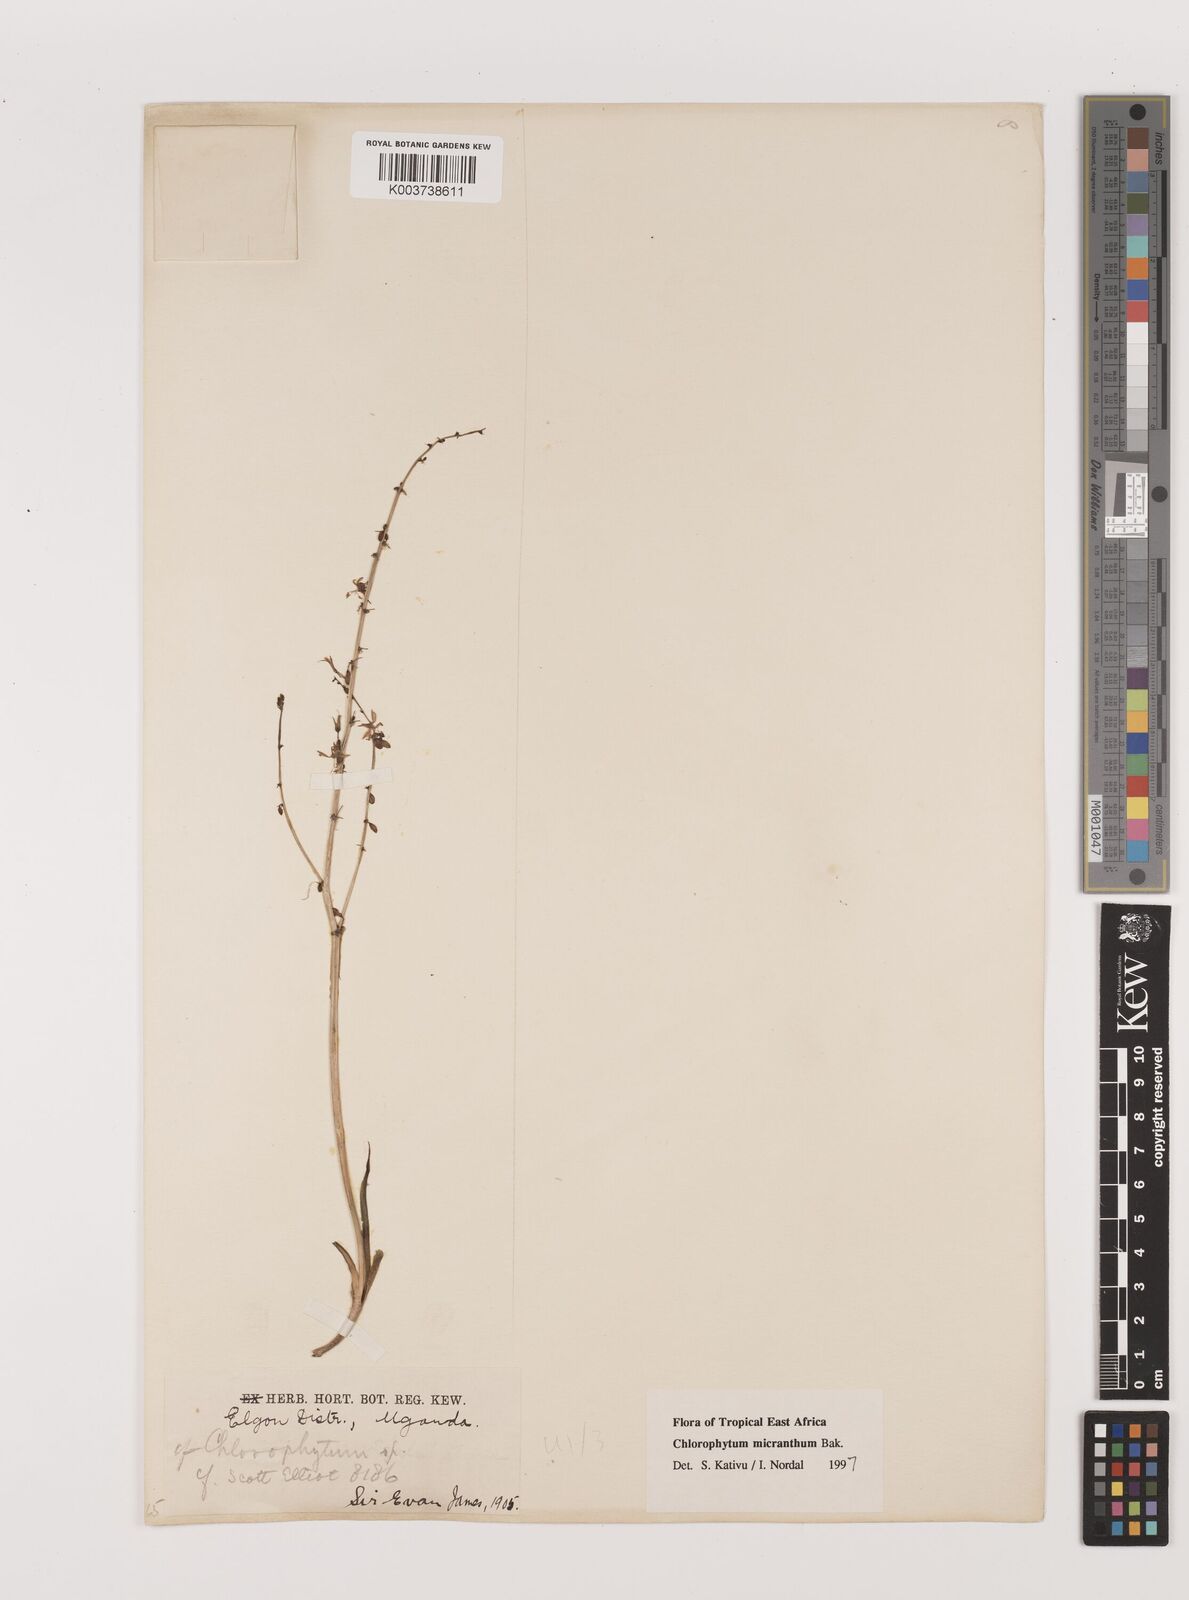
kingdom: Plantae
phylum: Tracheophyta
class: Liliopsida
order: Asparagales
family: Asparagaceae
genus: Chlorophytum
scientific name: Chlorophytum gallabatense
